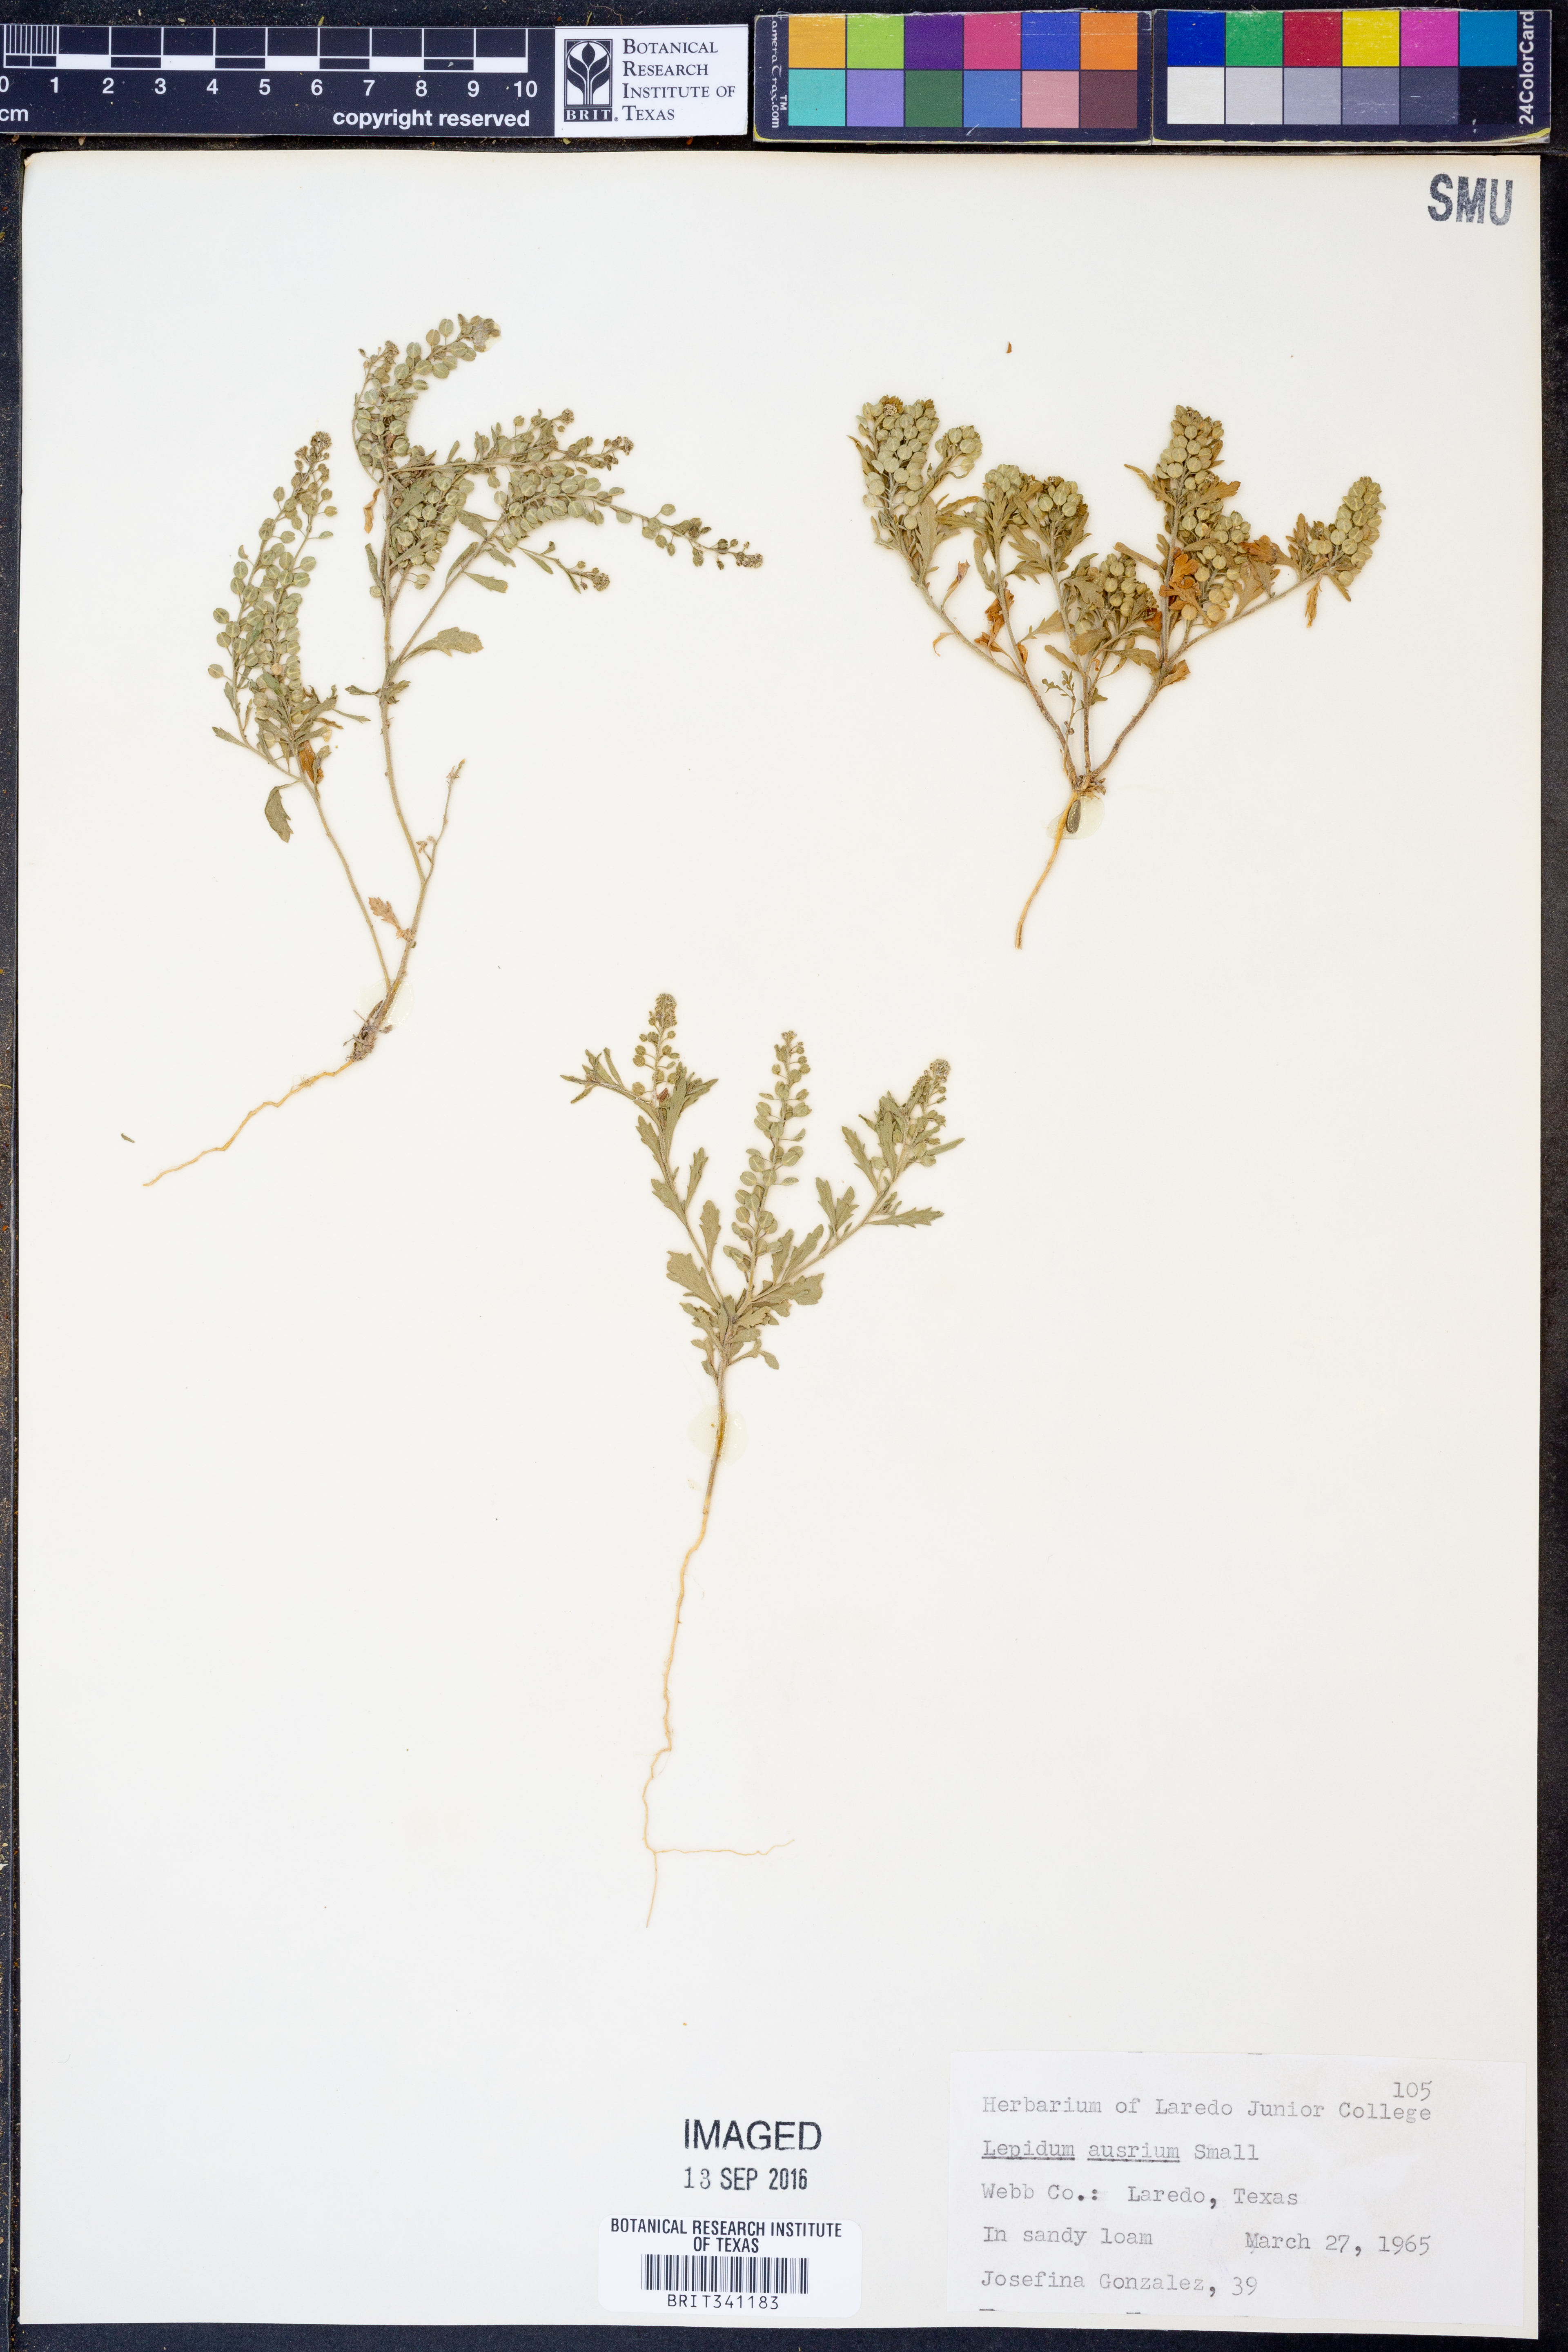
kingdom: Plantae
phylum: Tracheophyta
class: Magnoliopsida
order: Brassicales
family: Brassicaceae
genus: Lepidium
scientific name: Lepidium austrinum
